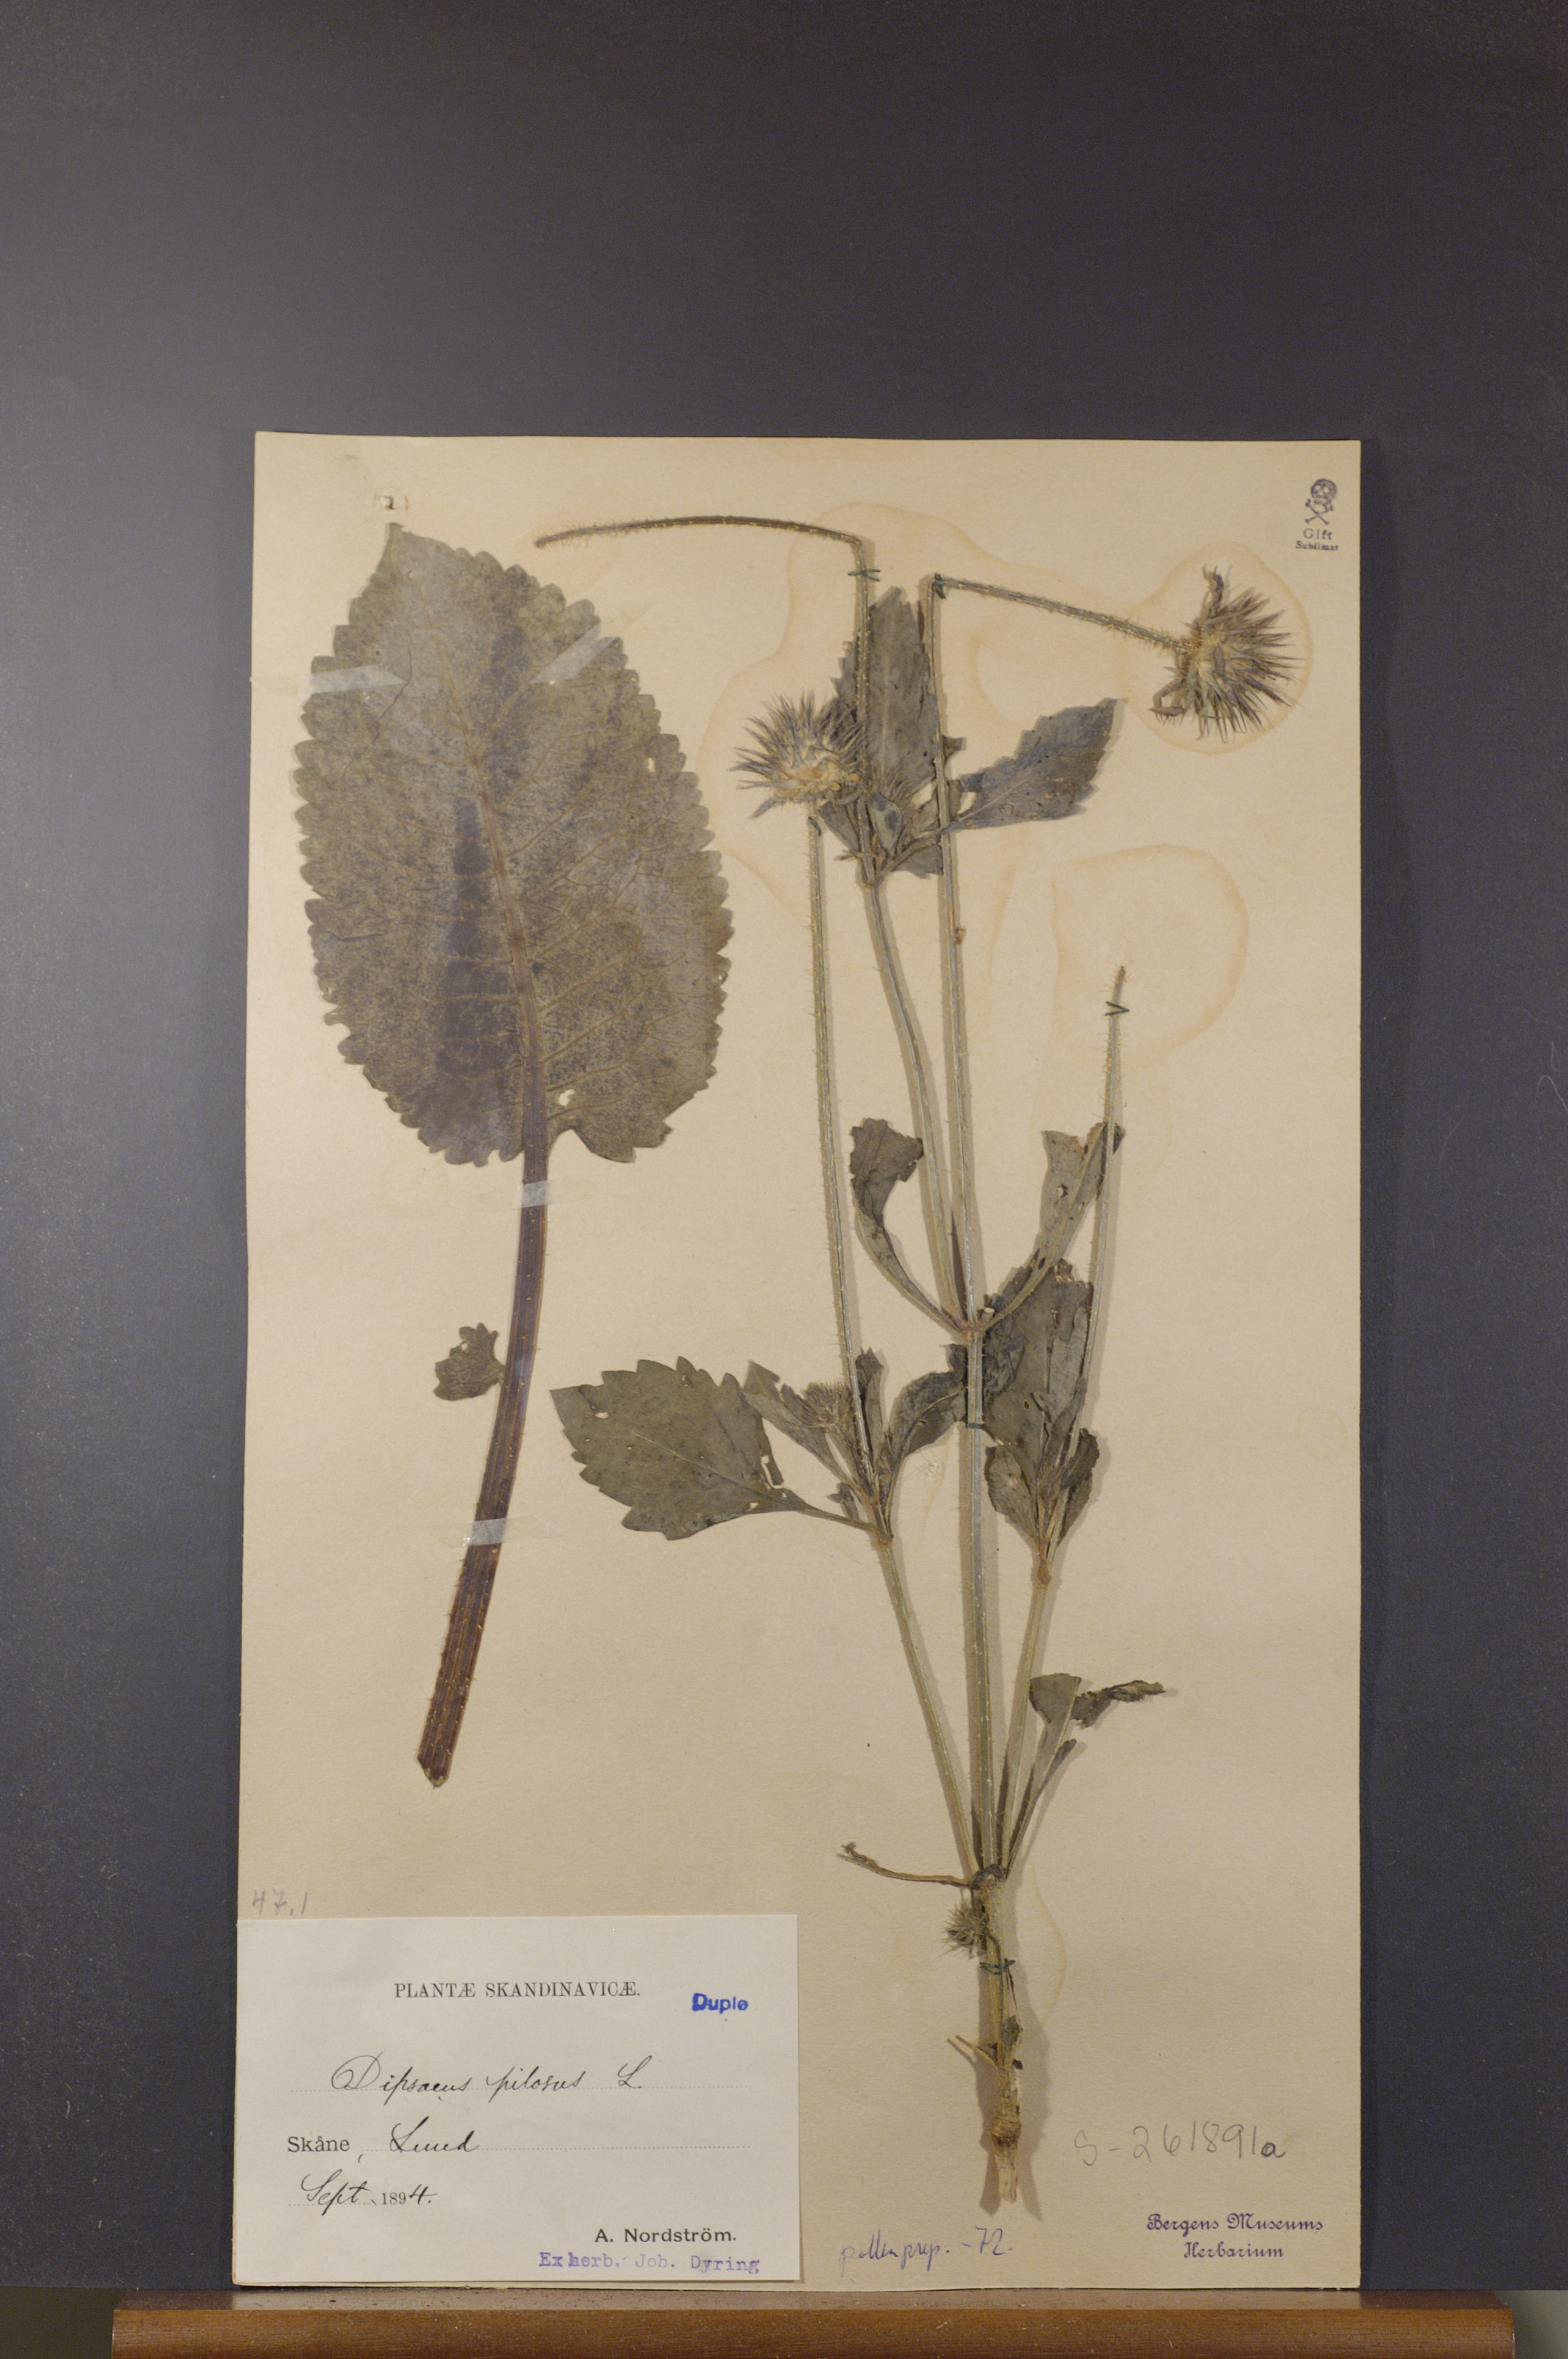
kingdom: Plantae
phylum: Tracheophyta
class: Magnoliopsida
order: Dipsacales
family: Caprifoliaceae
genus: Dipsacus
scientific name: Dipsacus pilosus
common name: Small teasel
